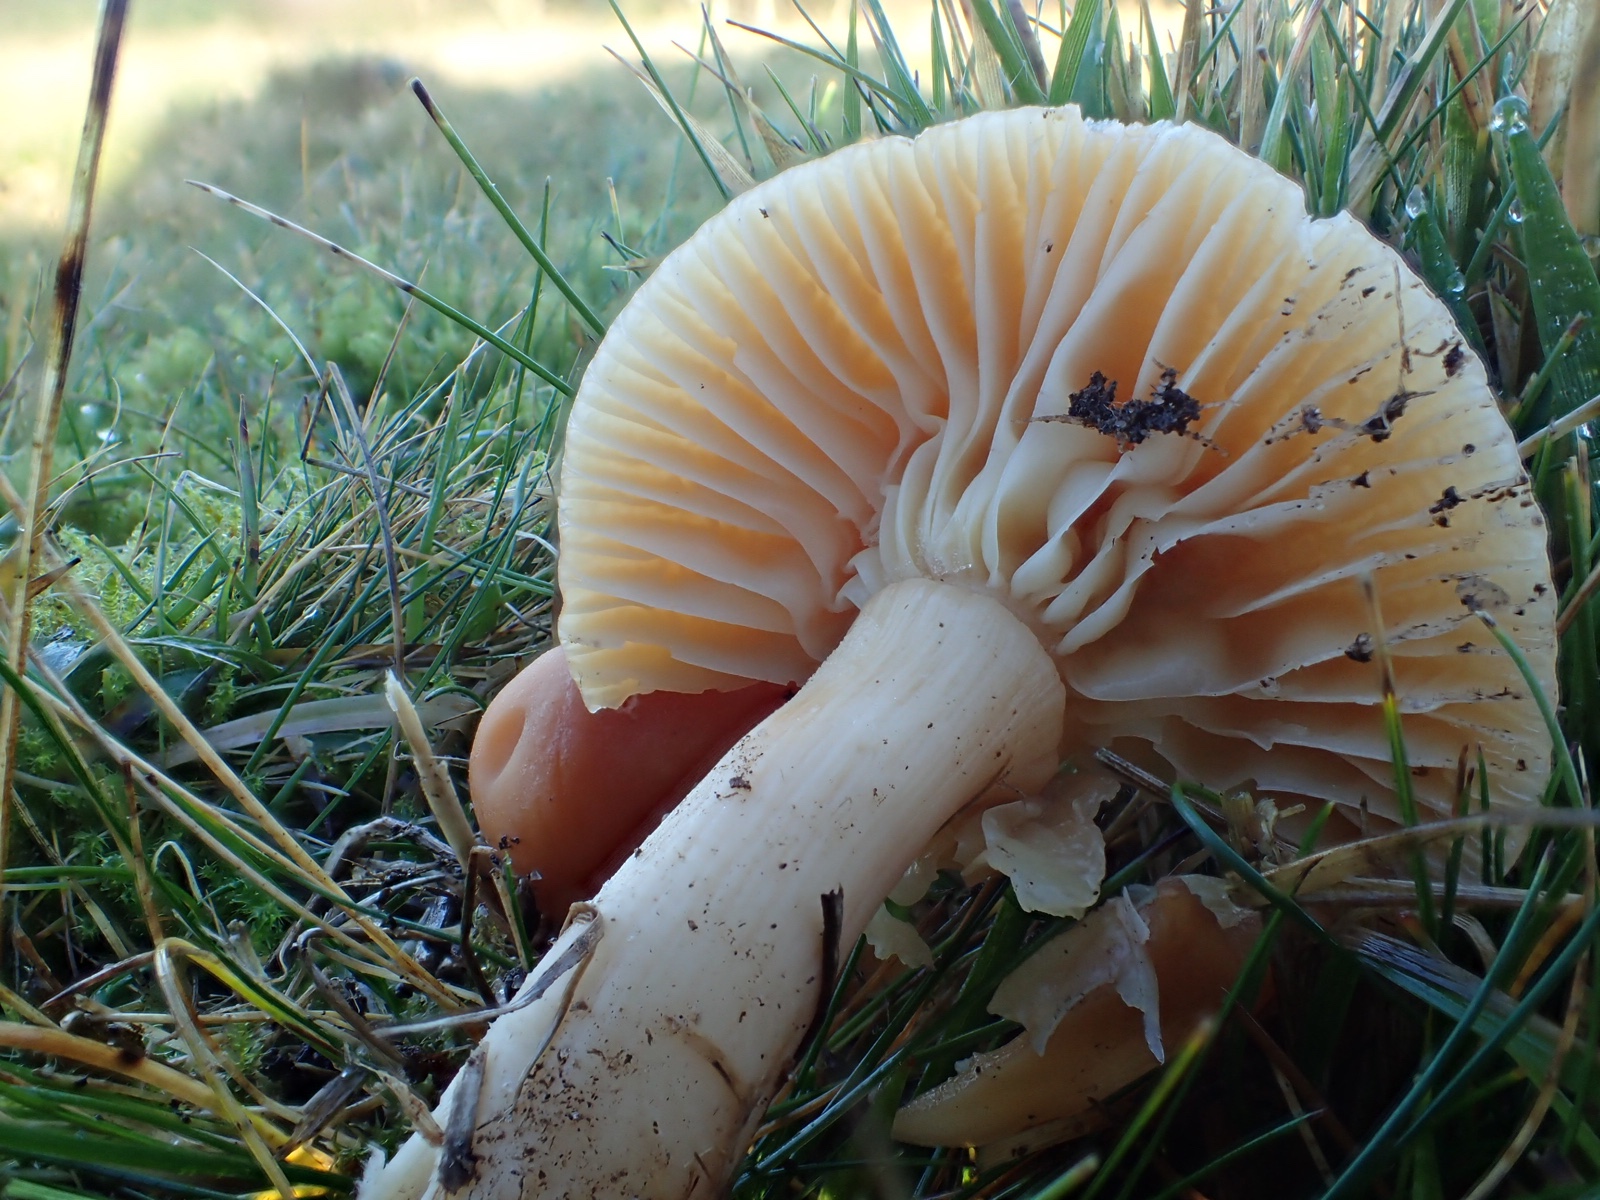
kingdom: Fungi
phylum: Basidiomycota
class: Agaricomycetes
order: Agaricales
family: Hygrophoraceae
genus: Cuphophyllus
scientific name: Cuphophyllus pratensis
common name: eng-vokshat
